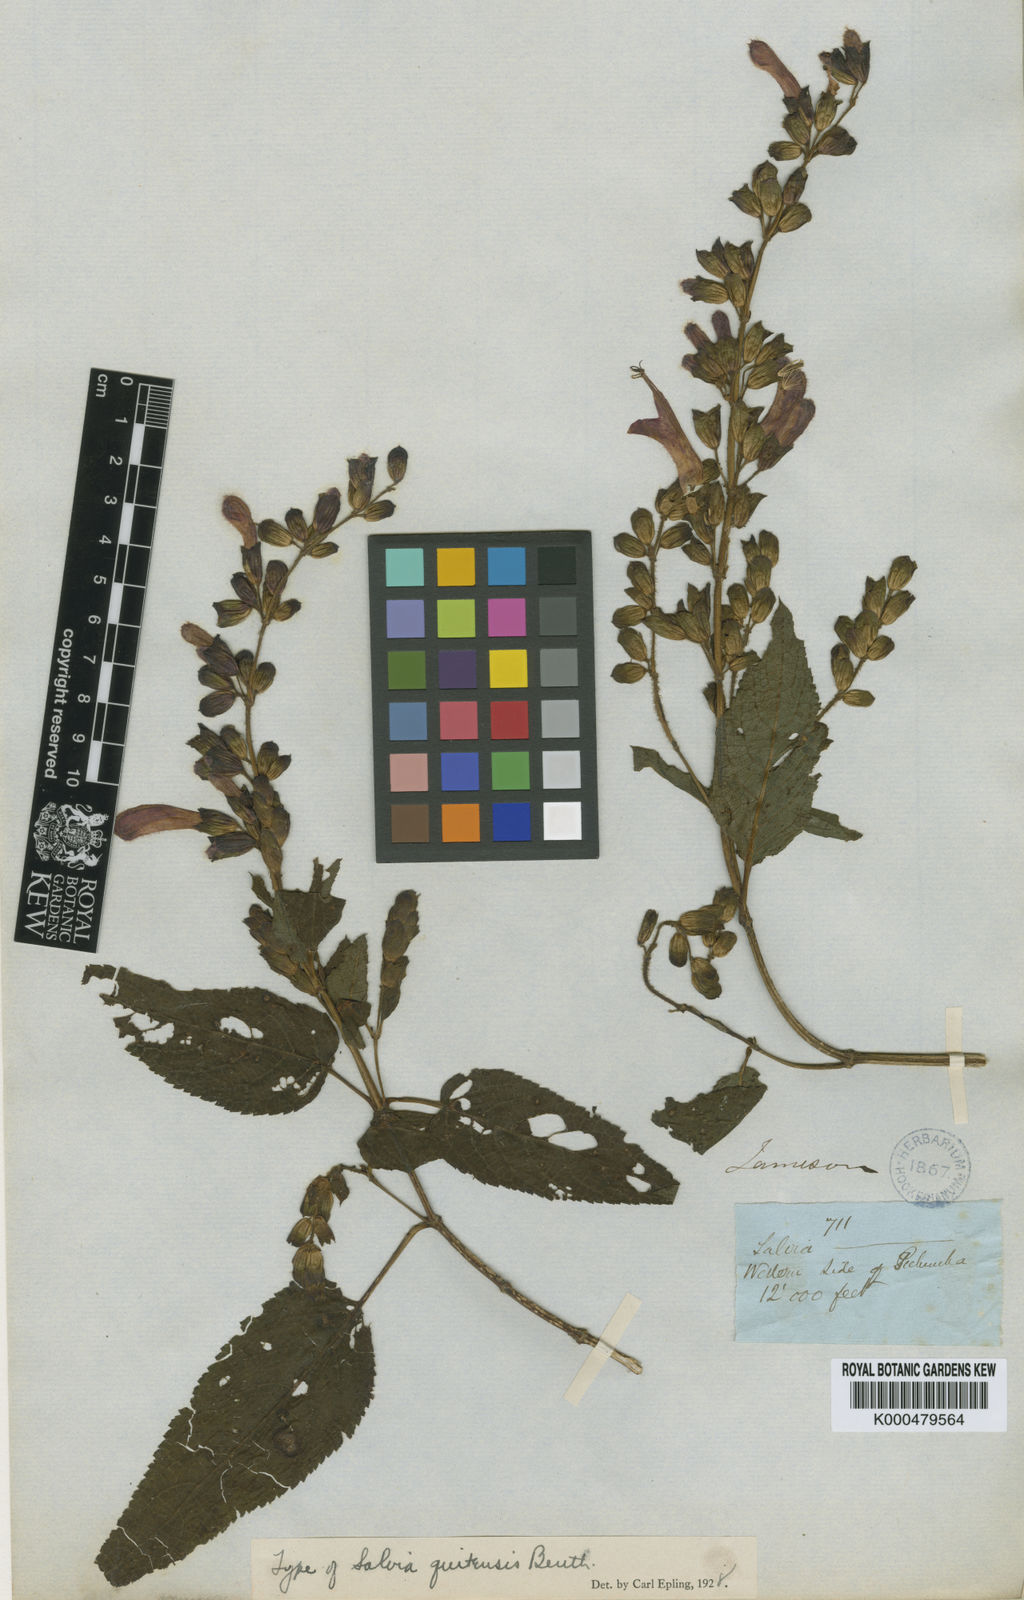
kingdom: Plantae
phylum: Tracheophyta
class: Magnoliopsida
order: Lamiales
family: Lamiaceae
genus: Salvia
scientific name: Salvia quitensis
